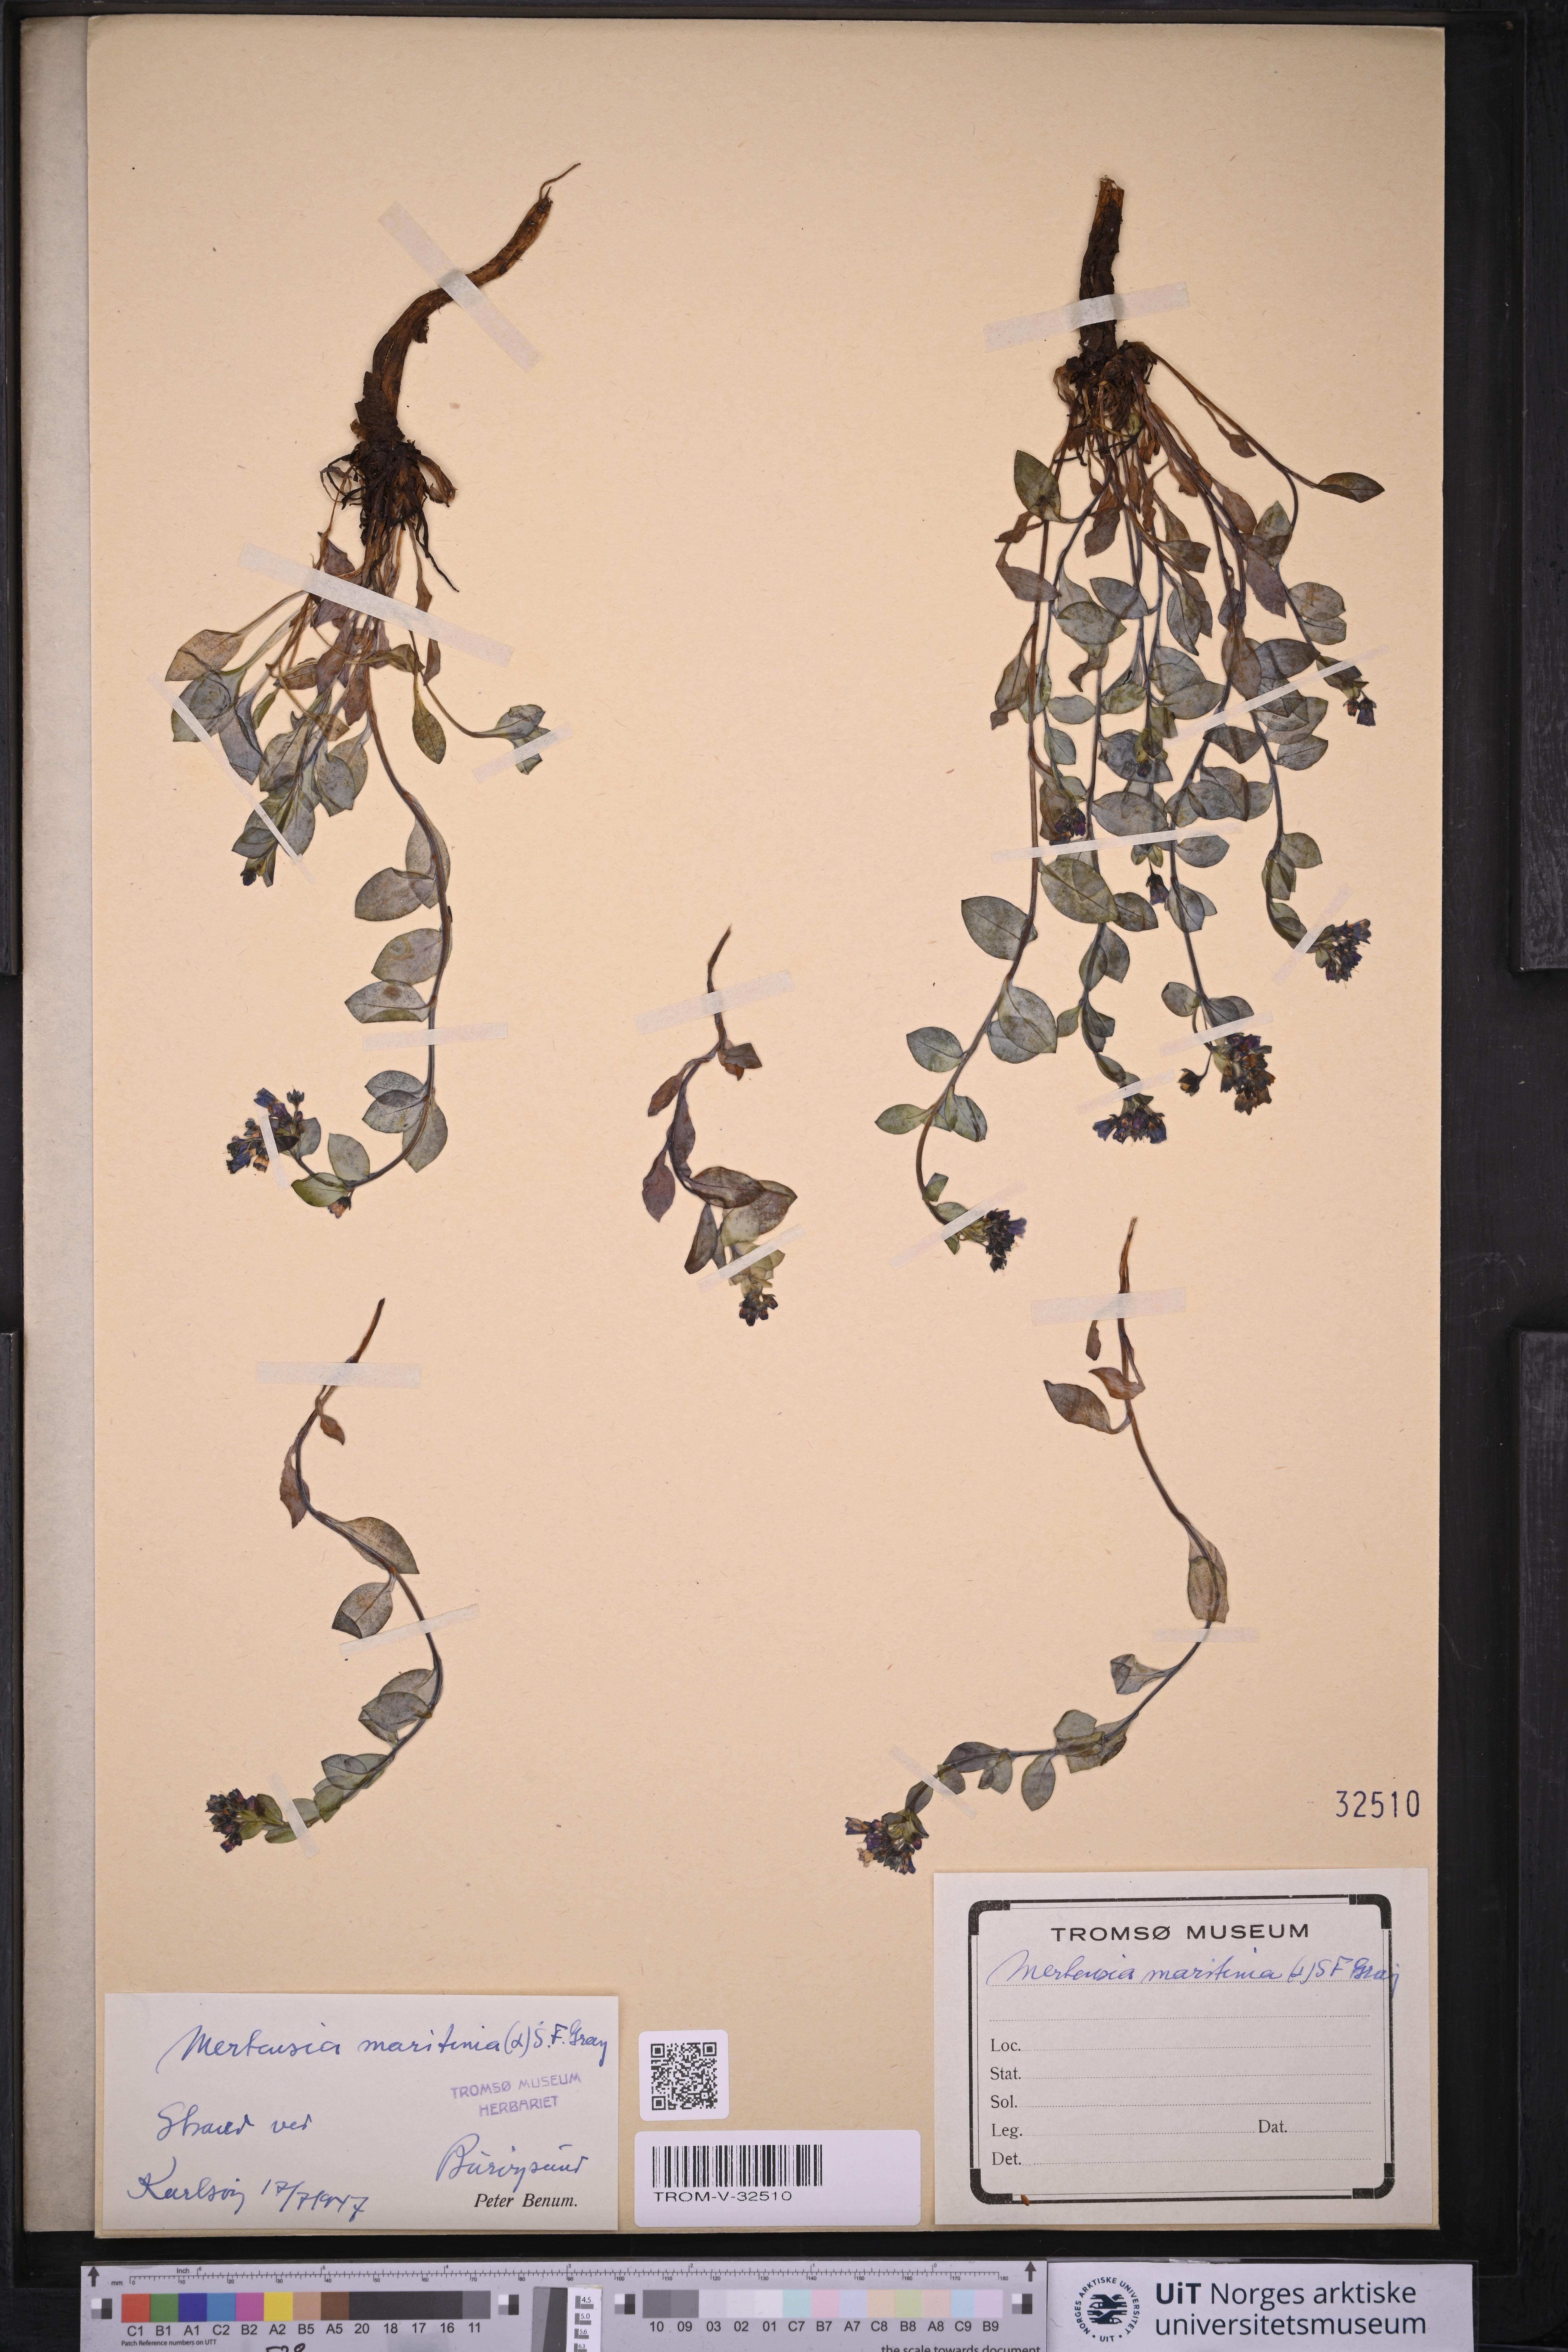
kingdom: Plantae
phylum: Tracheophyta
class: Magnoliopsida
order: Boraginales
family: Boraginaceae
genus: Mertensia
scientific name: Mertensia maritima
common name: Oysterplant
